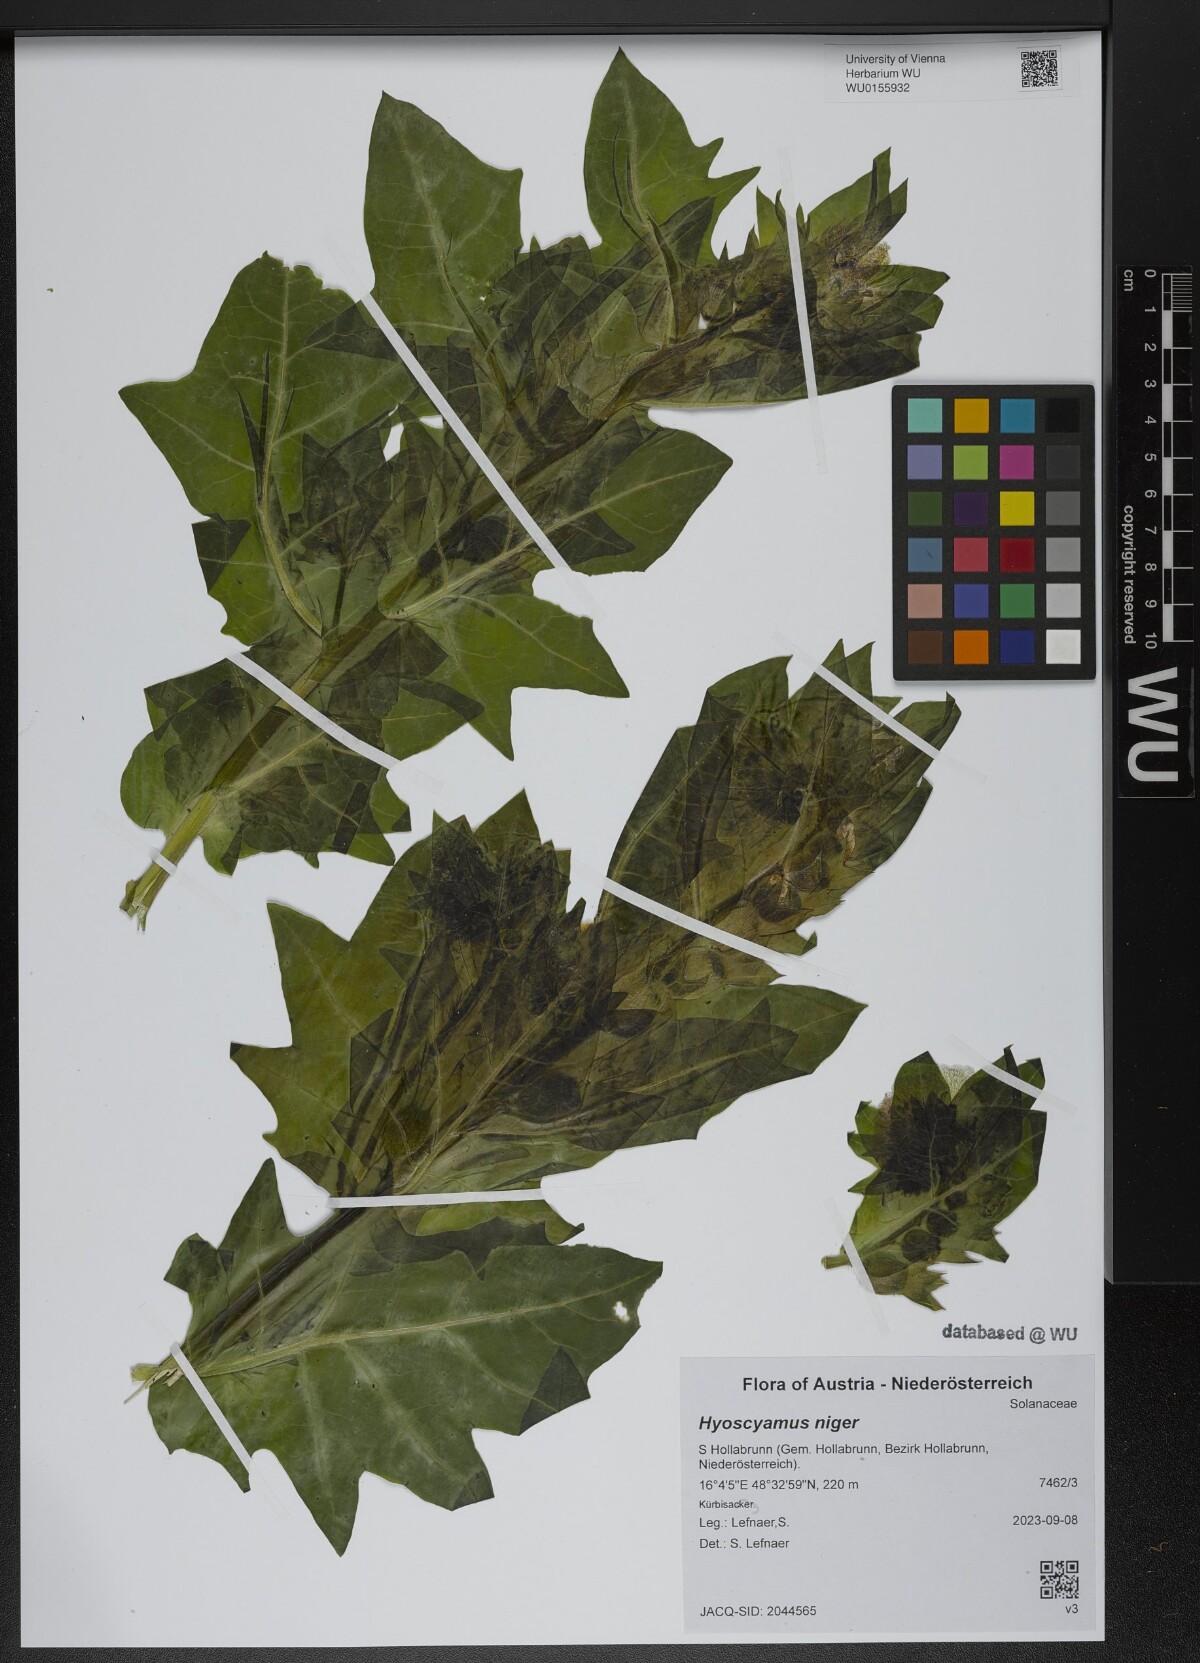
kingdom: Plantae
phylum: Tracheophyta
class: Magnoliopsida
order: Solanales
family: Solanaceae
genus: Hyoscyamus
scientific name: Hyoscyamus niger
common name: Henbane
